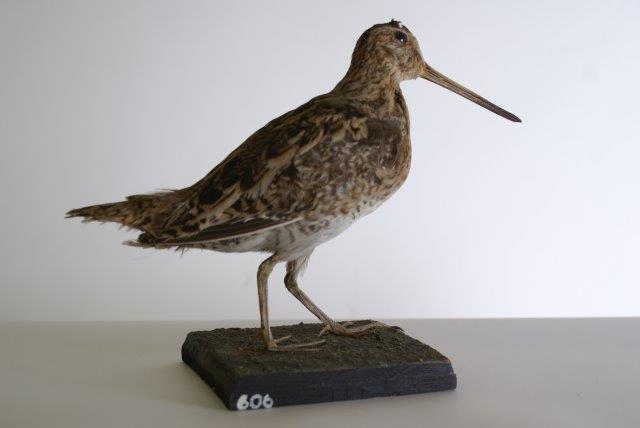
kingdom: Animalia
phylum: Chordata
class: Aves
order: Charadriiformes
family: Scolopacidae
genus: Gallinago
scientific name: Gallinago gallinago
